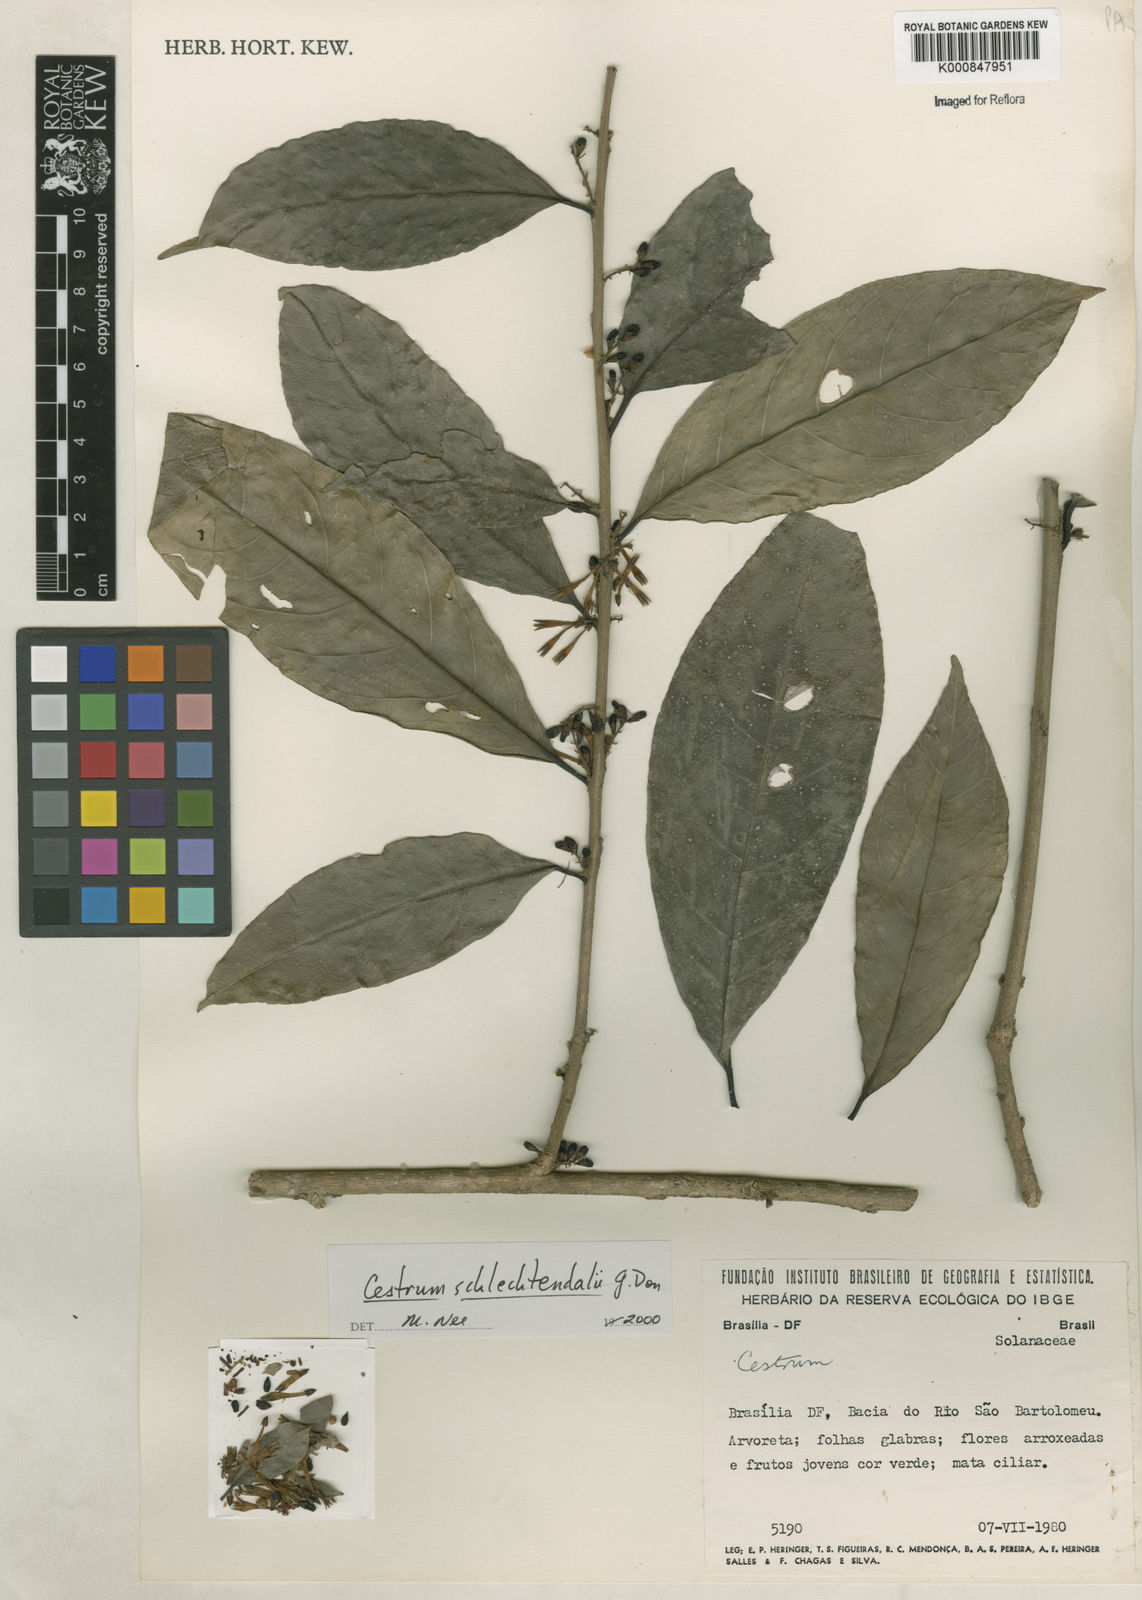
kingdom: Plantae
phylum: Tracheophyta
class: Magnoliopsida
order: Solanales
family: Solanaceae
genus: Cestrum
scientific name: Cestrum schlechtendalii
